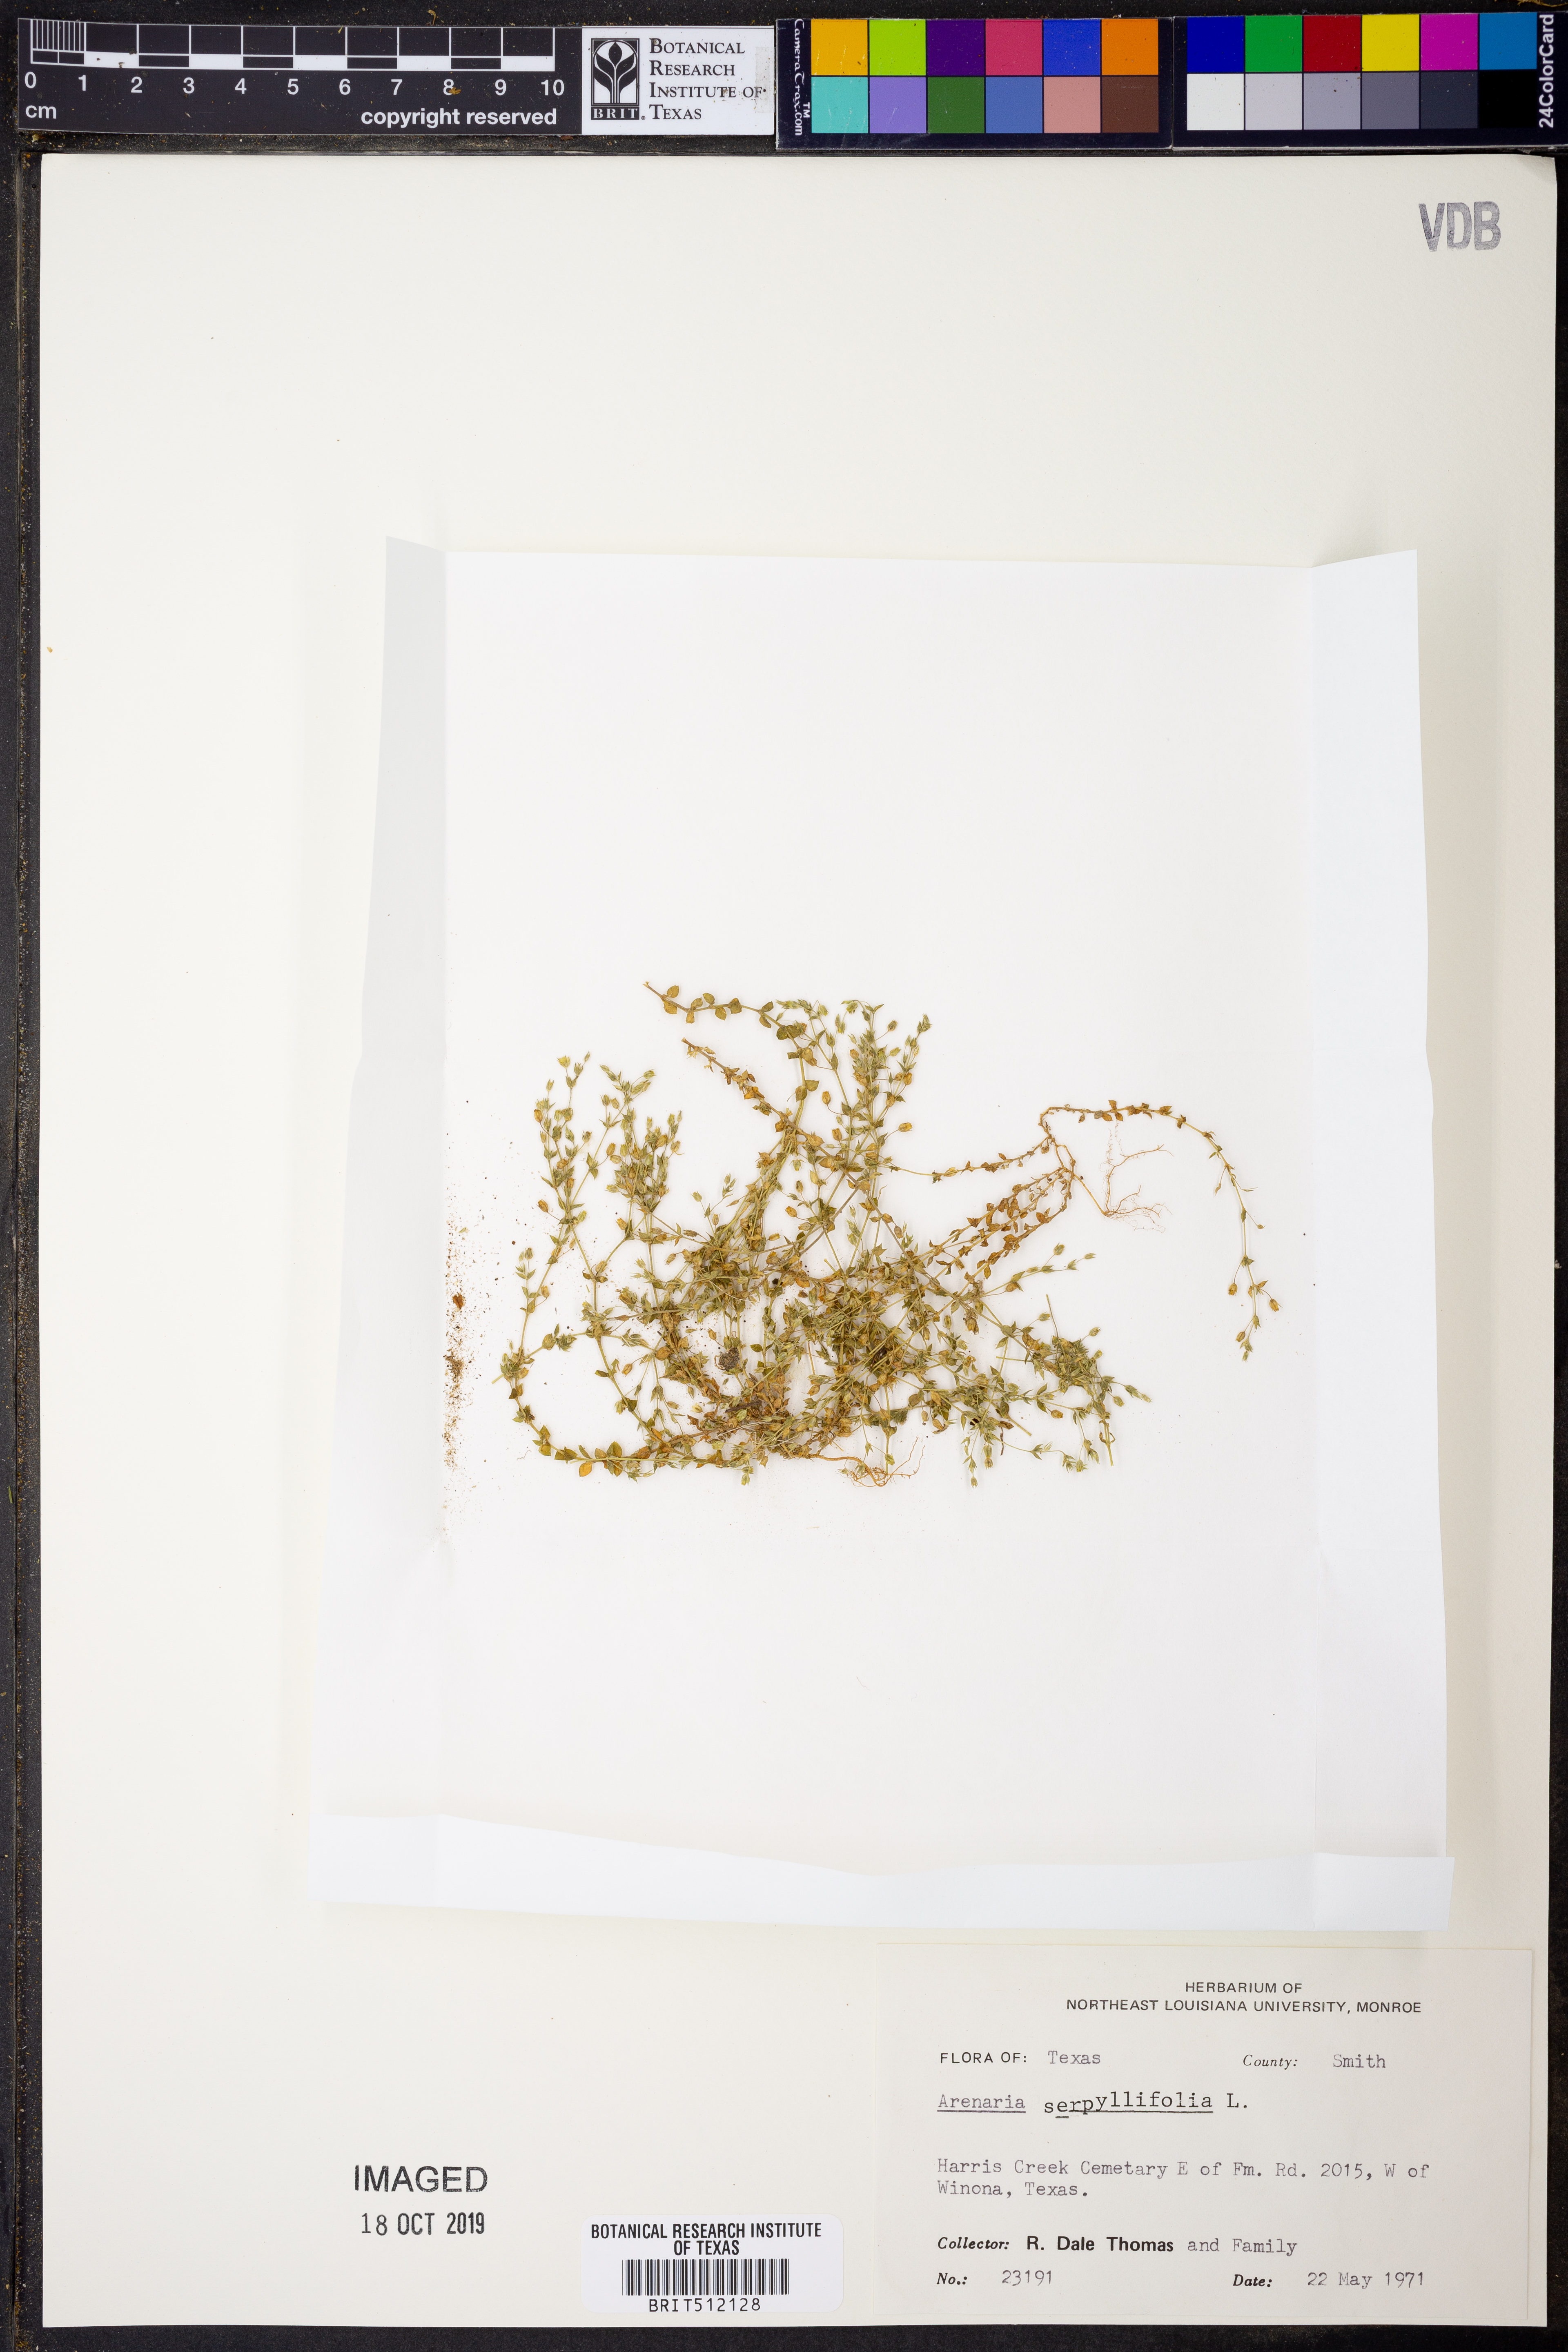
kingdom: Plantae
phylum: Tracheophyta
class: Magnoliopsida
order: Caryophyllales
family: Caryophyllaceae
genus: Arenaria
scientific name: Arenaria serpyllifolia
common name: Thyme-leaved sandwort
